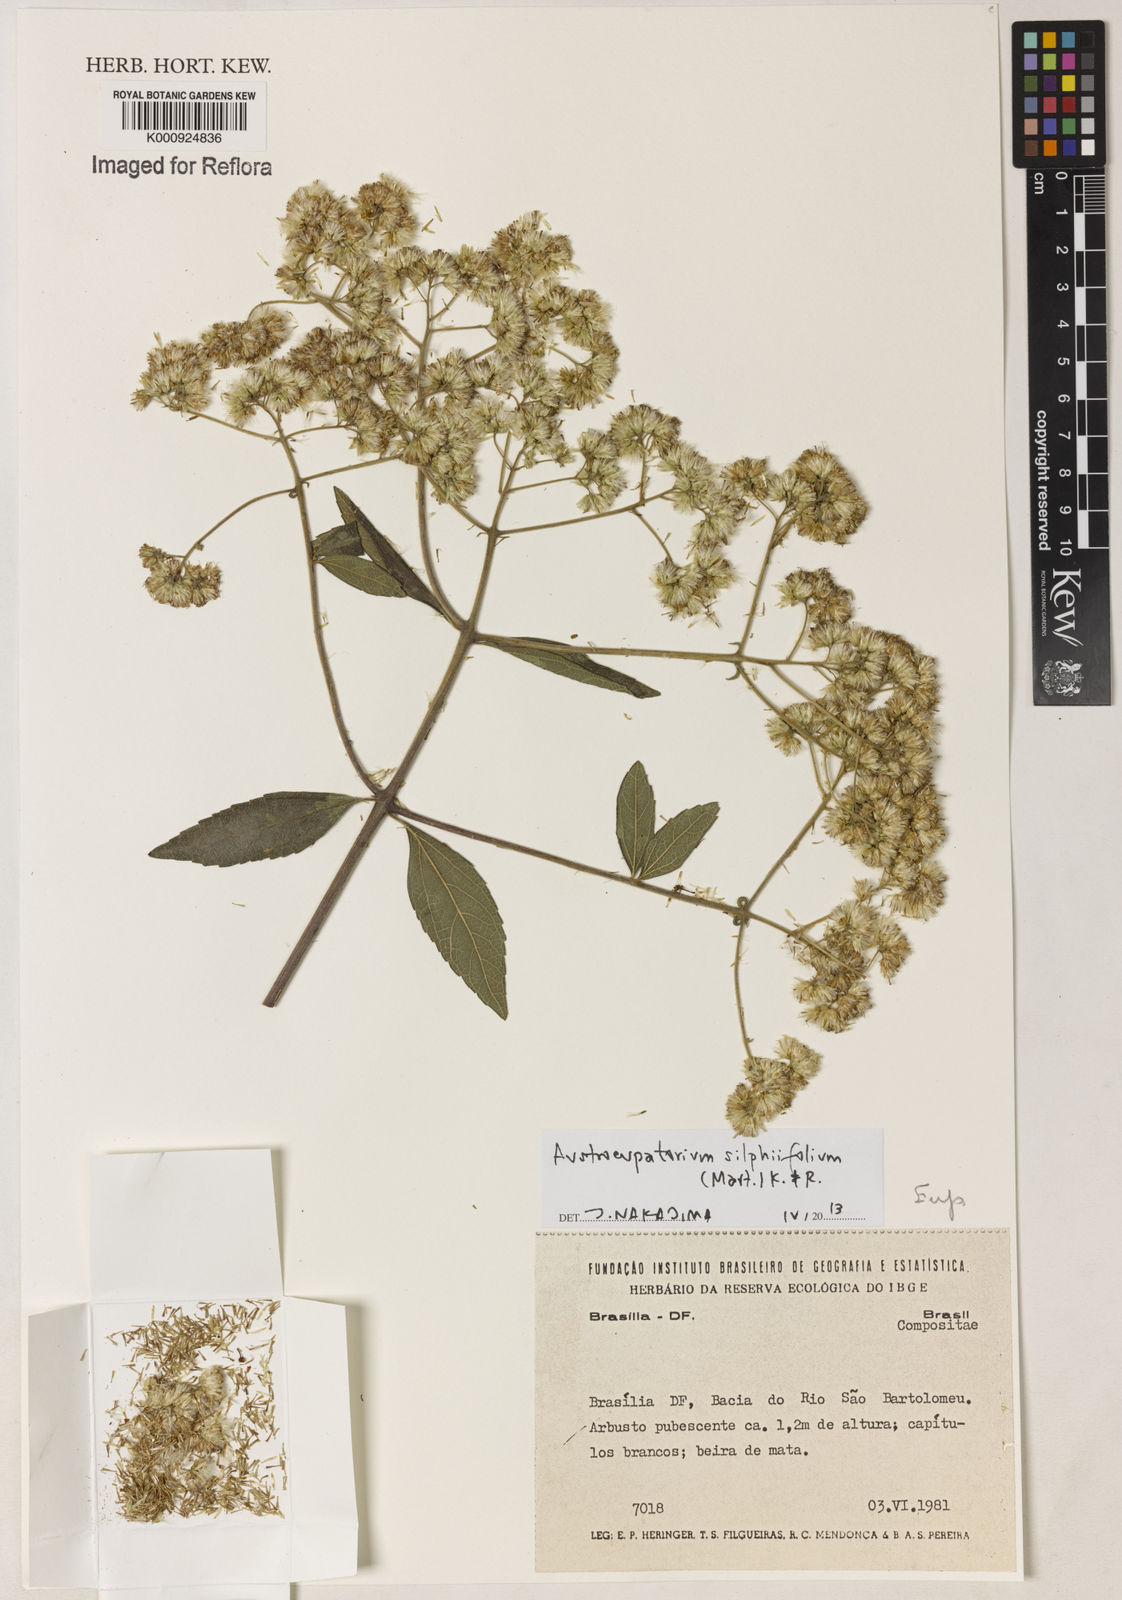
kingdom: Plantae
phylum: Tracheophyta
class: Magnoliopsida
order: Asterales
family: Asteraceae
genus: Austroeupatorium
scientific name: Austroeupatorium silphiifolium
